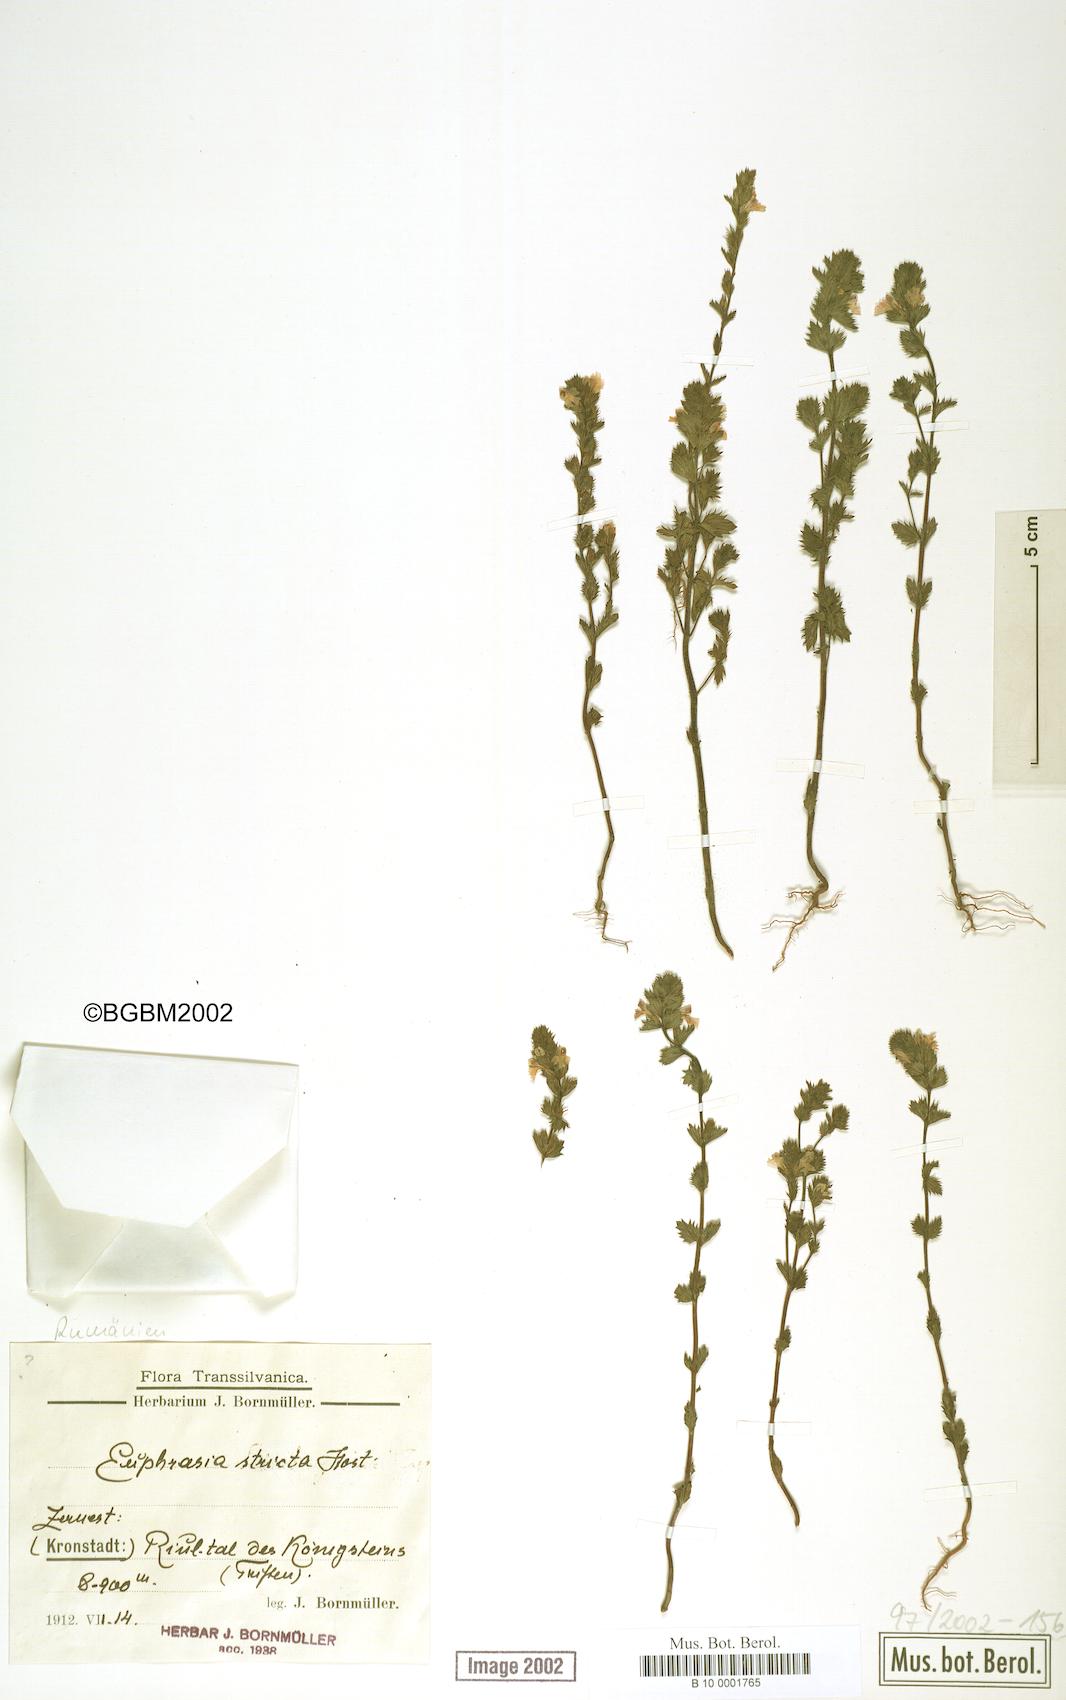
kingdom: Plantae
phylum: Tracheophyta
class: Magnoliopsida
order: Lamiales
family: Orobanchaceae
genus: Euphrasia
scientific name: Euphrasia stricta
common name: Drug eyebright
